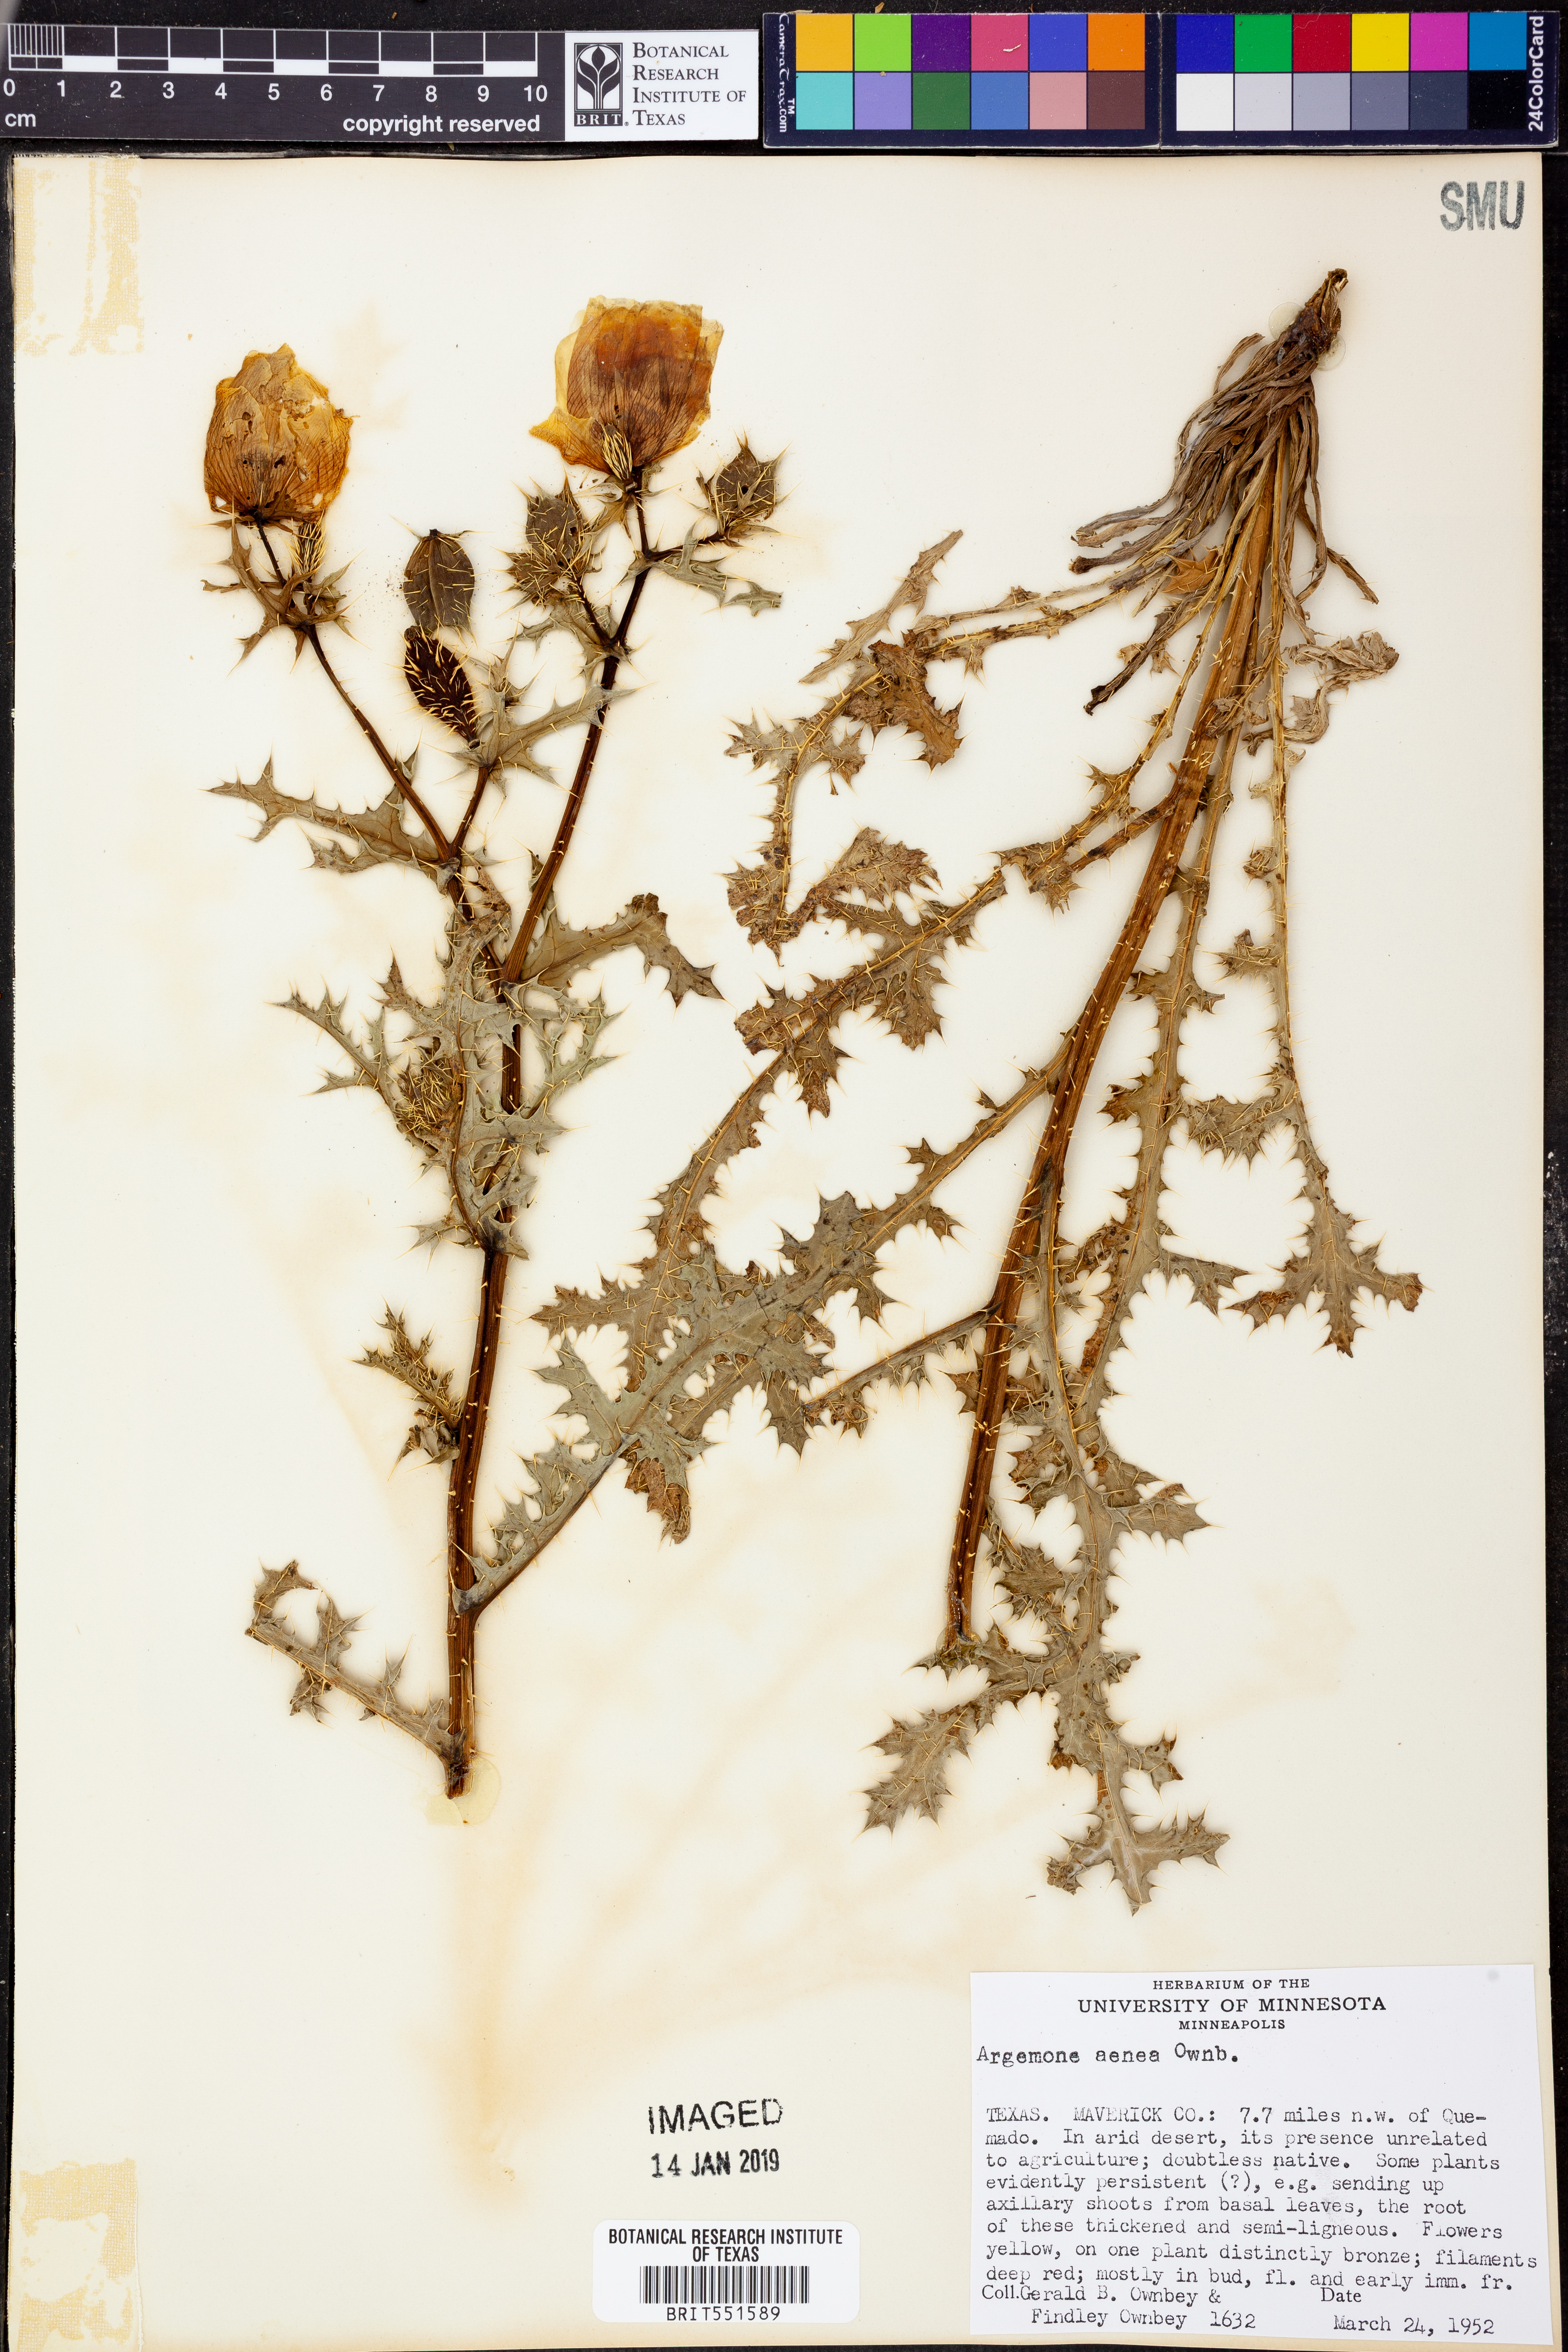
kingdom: Plantae
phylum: Tracheophyta
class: Magnoliopsida
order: Ranunculales
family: Papaveraceae
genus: Argemone
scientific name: Argemone aenea
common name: Golden prickly-poppy
